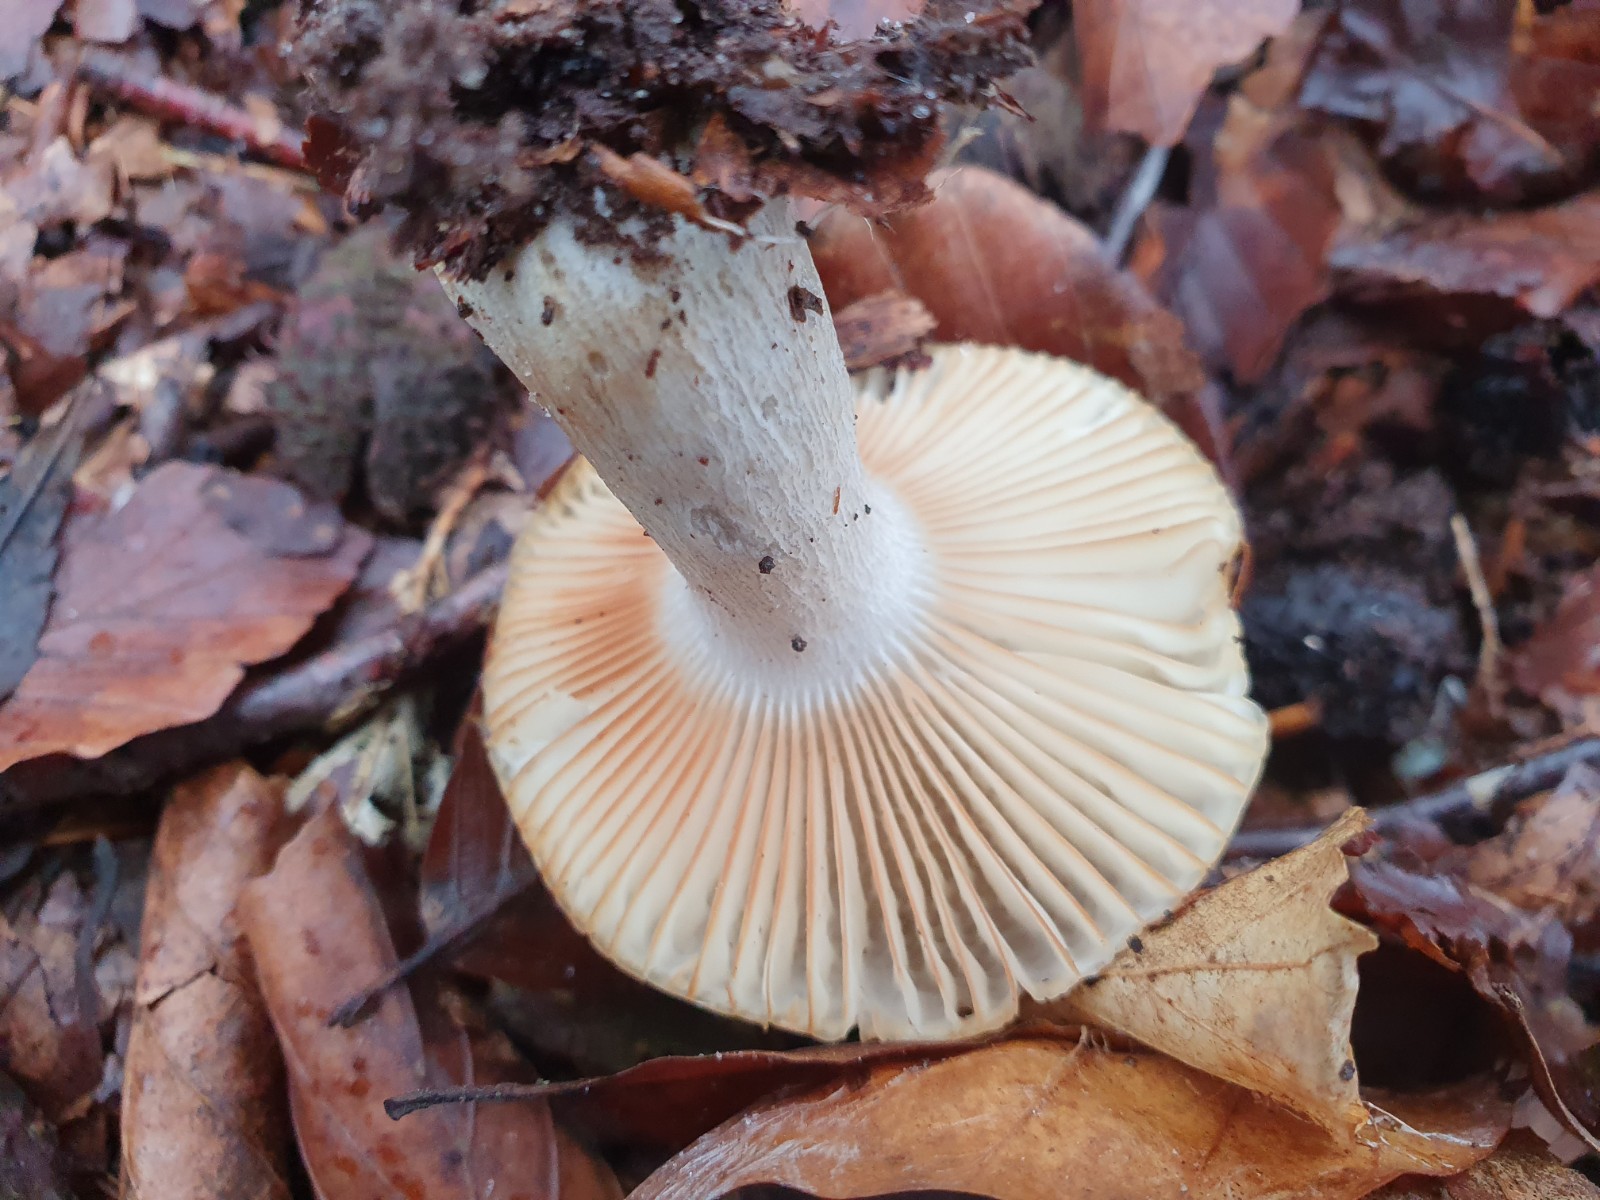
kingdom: Fungi
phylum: Basidiomycota
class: Agaricomycetes
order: Russulales
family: Russulaceae
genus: Russula
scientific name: Russula ochroleuca
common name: okkergul skørhat
